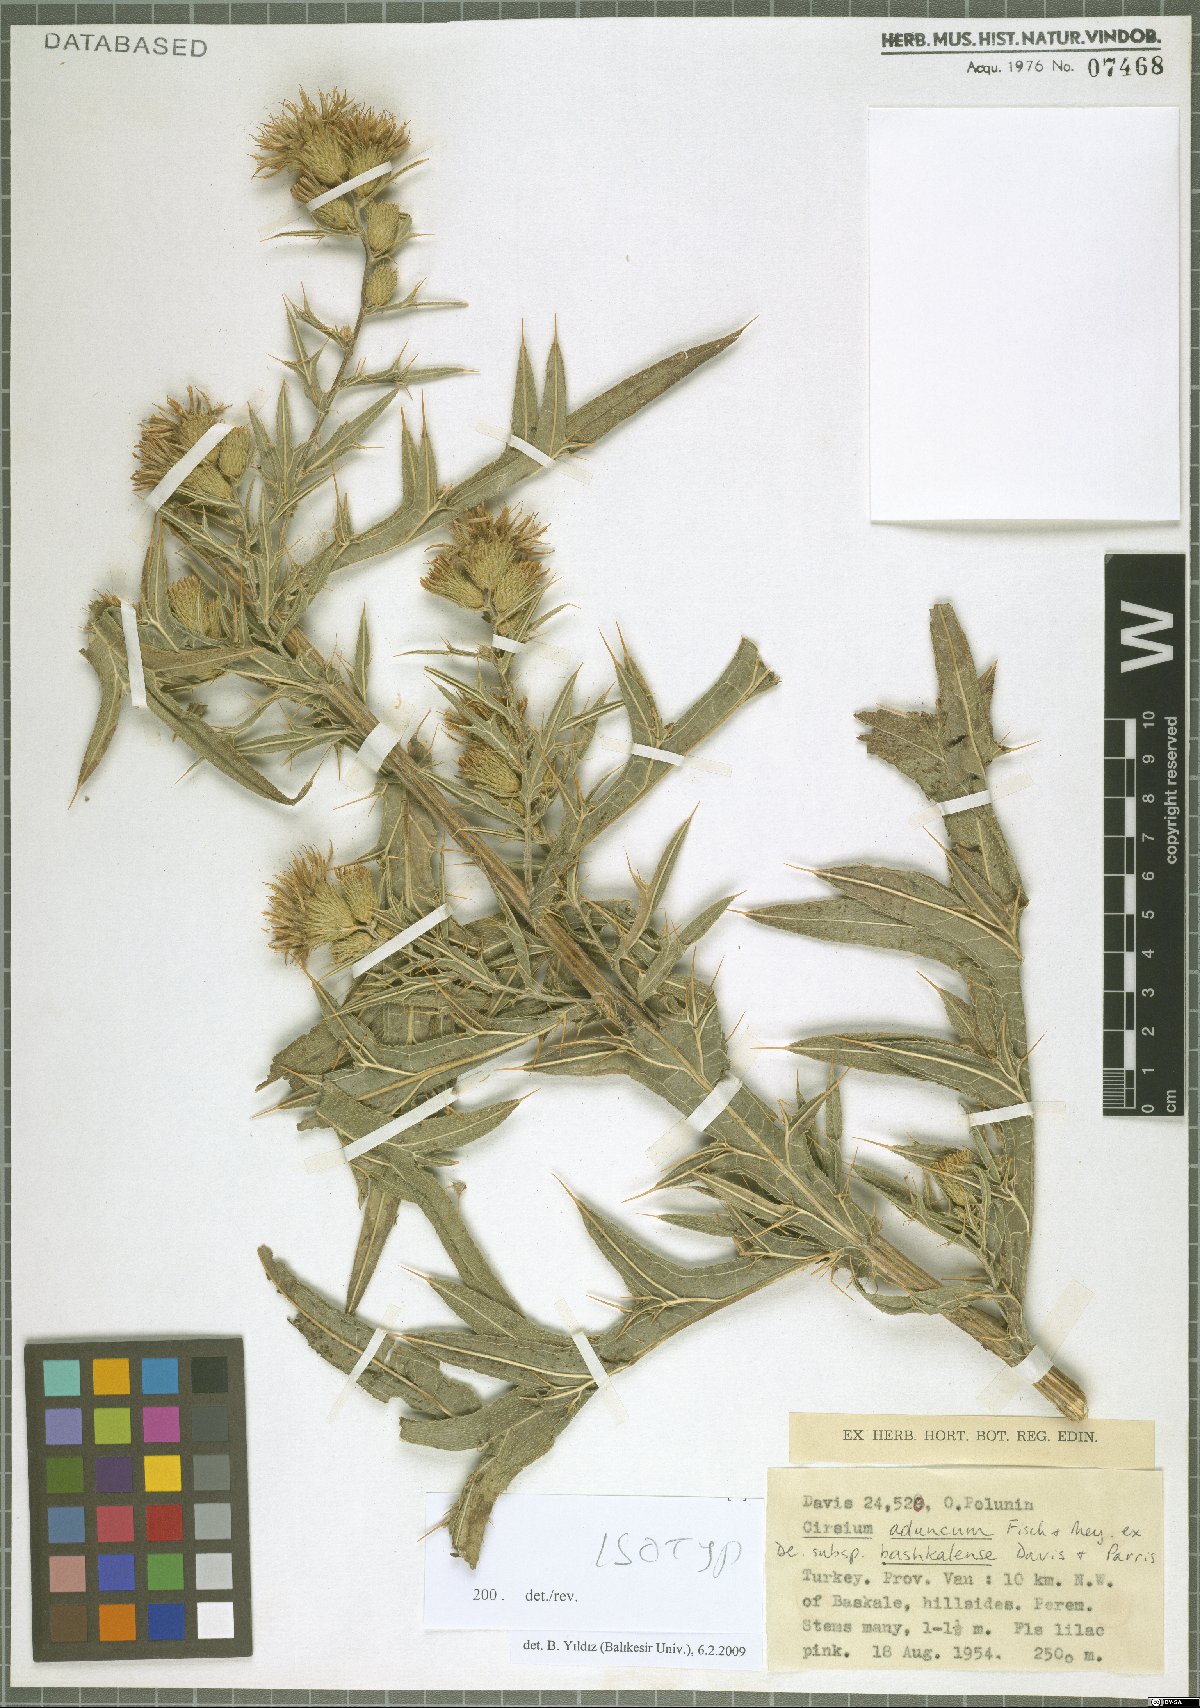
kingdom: Plantae
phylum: Tracheophyta
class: Magnoliopsida
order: Asterales
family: Asteraceae
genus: Lophiolepis
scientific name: Lophiolepis adunca
